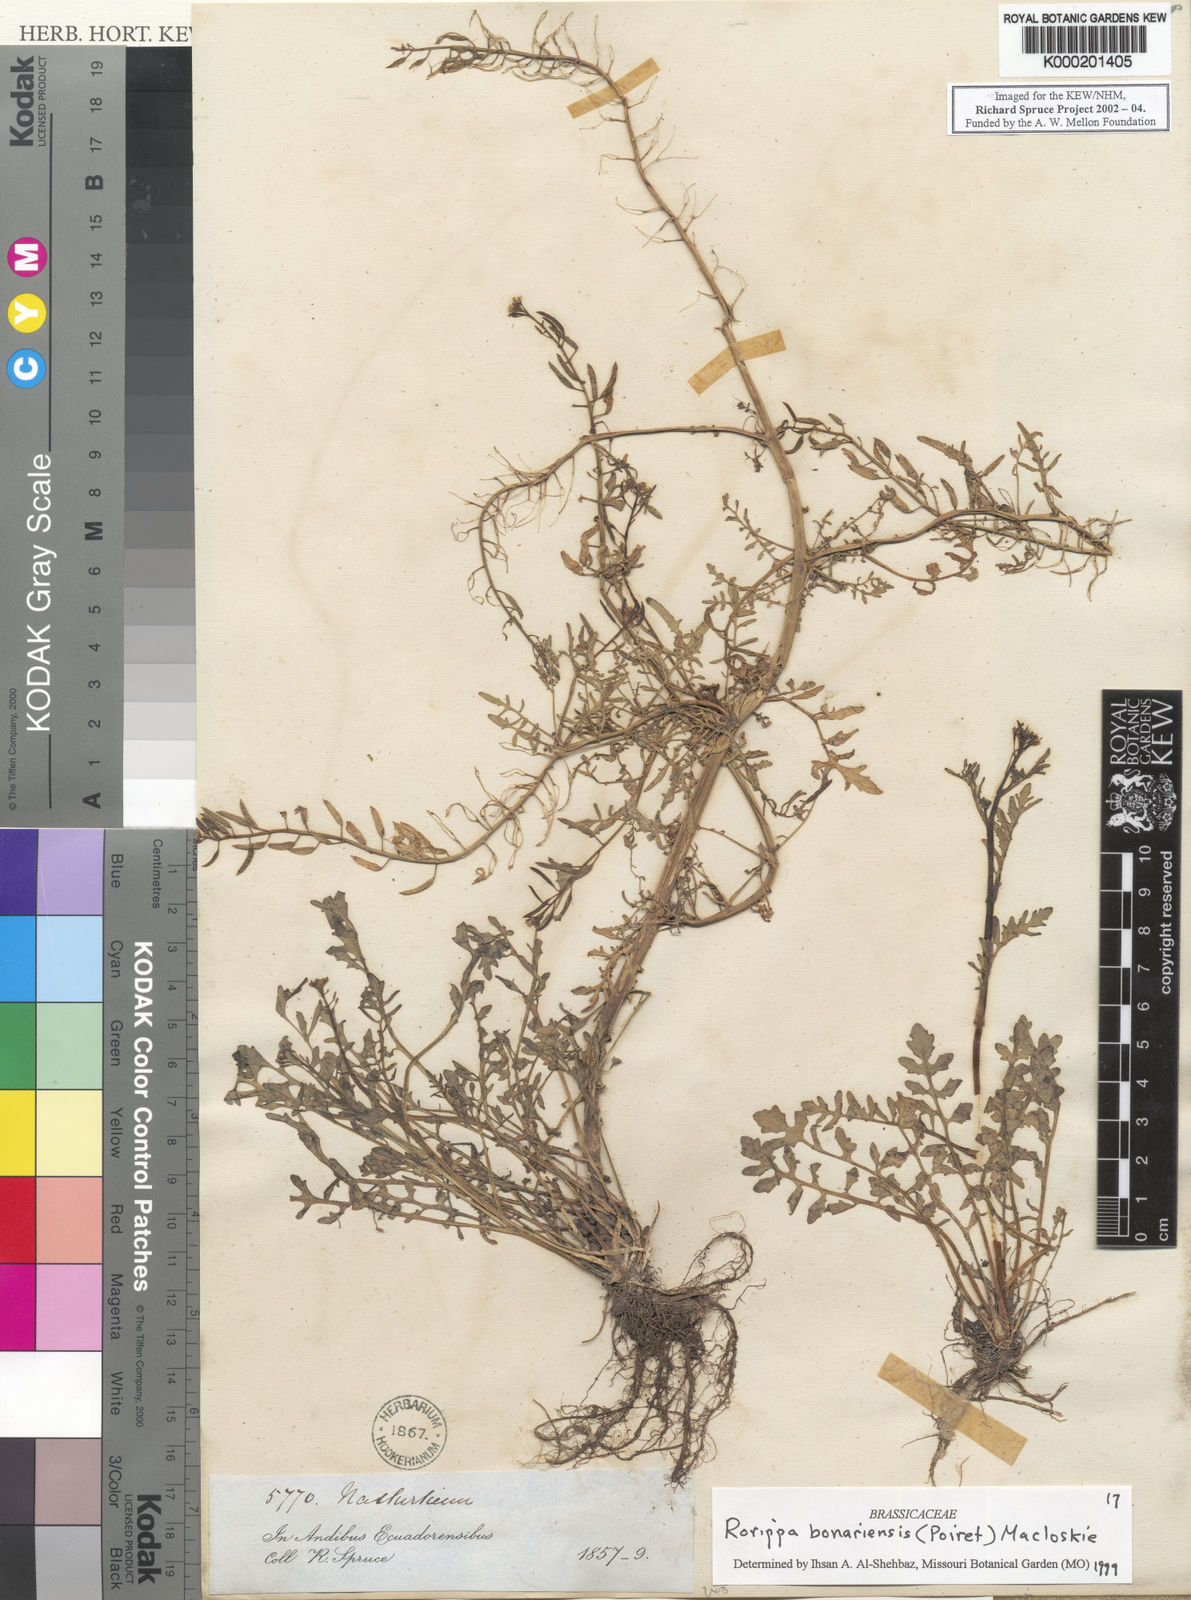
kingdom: Plantae
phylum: Tracheophyta
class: Magnoliopsida
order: Brassicales
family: Brassicaceae
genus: Rorippa
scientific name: Rorippa bonariensis
